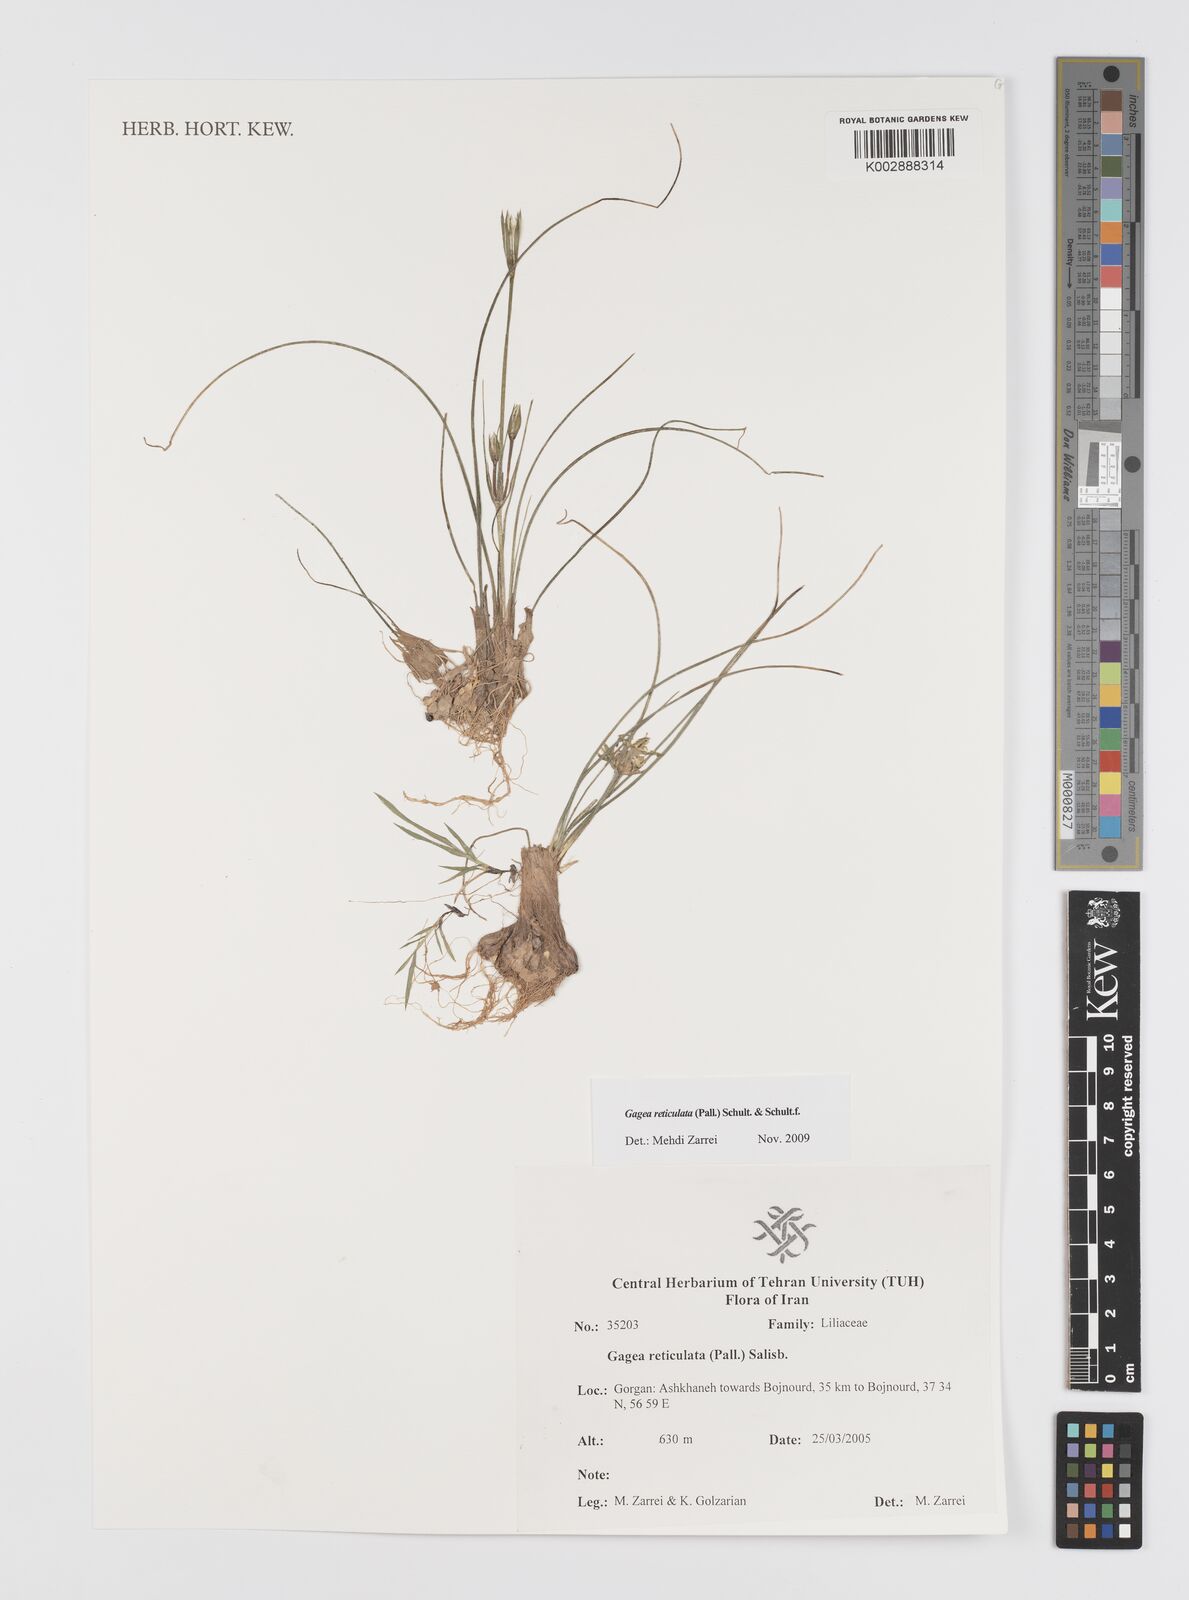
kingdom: Plantae
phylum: Tracheophyta
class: Liliopsida
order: Liliales
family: Liliaceae
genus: Gagea
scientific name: Gagea reticulata
